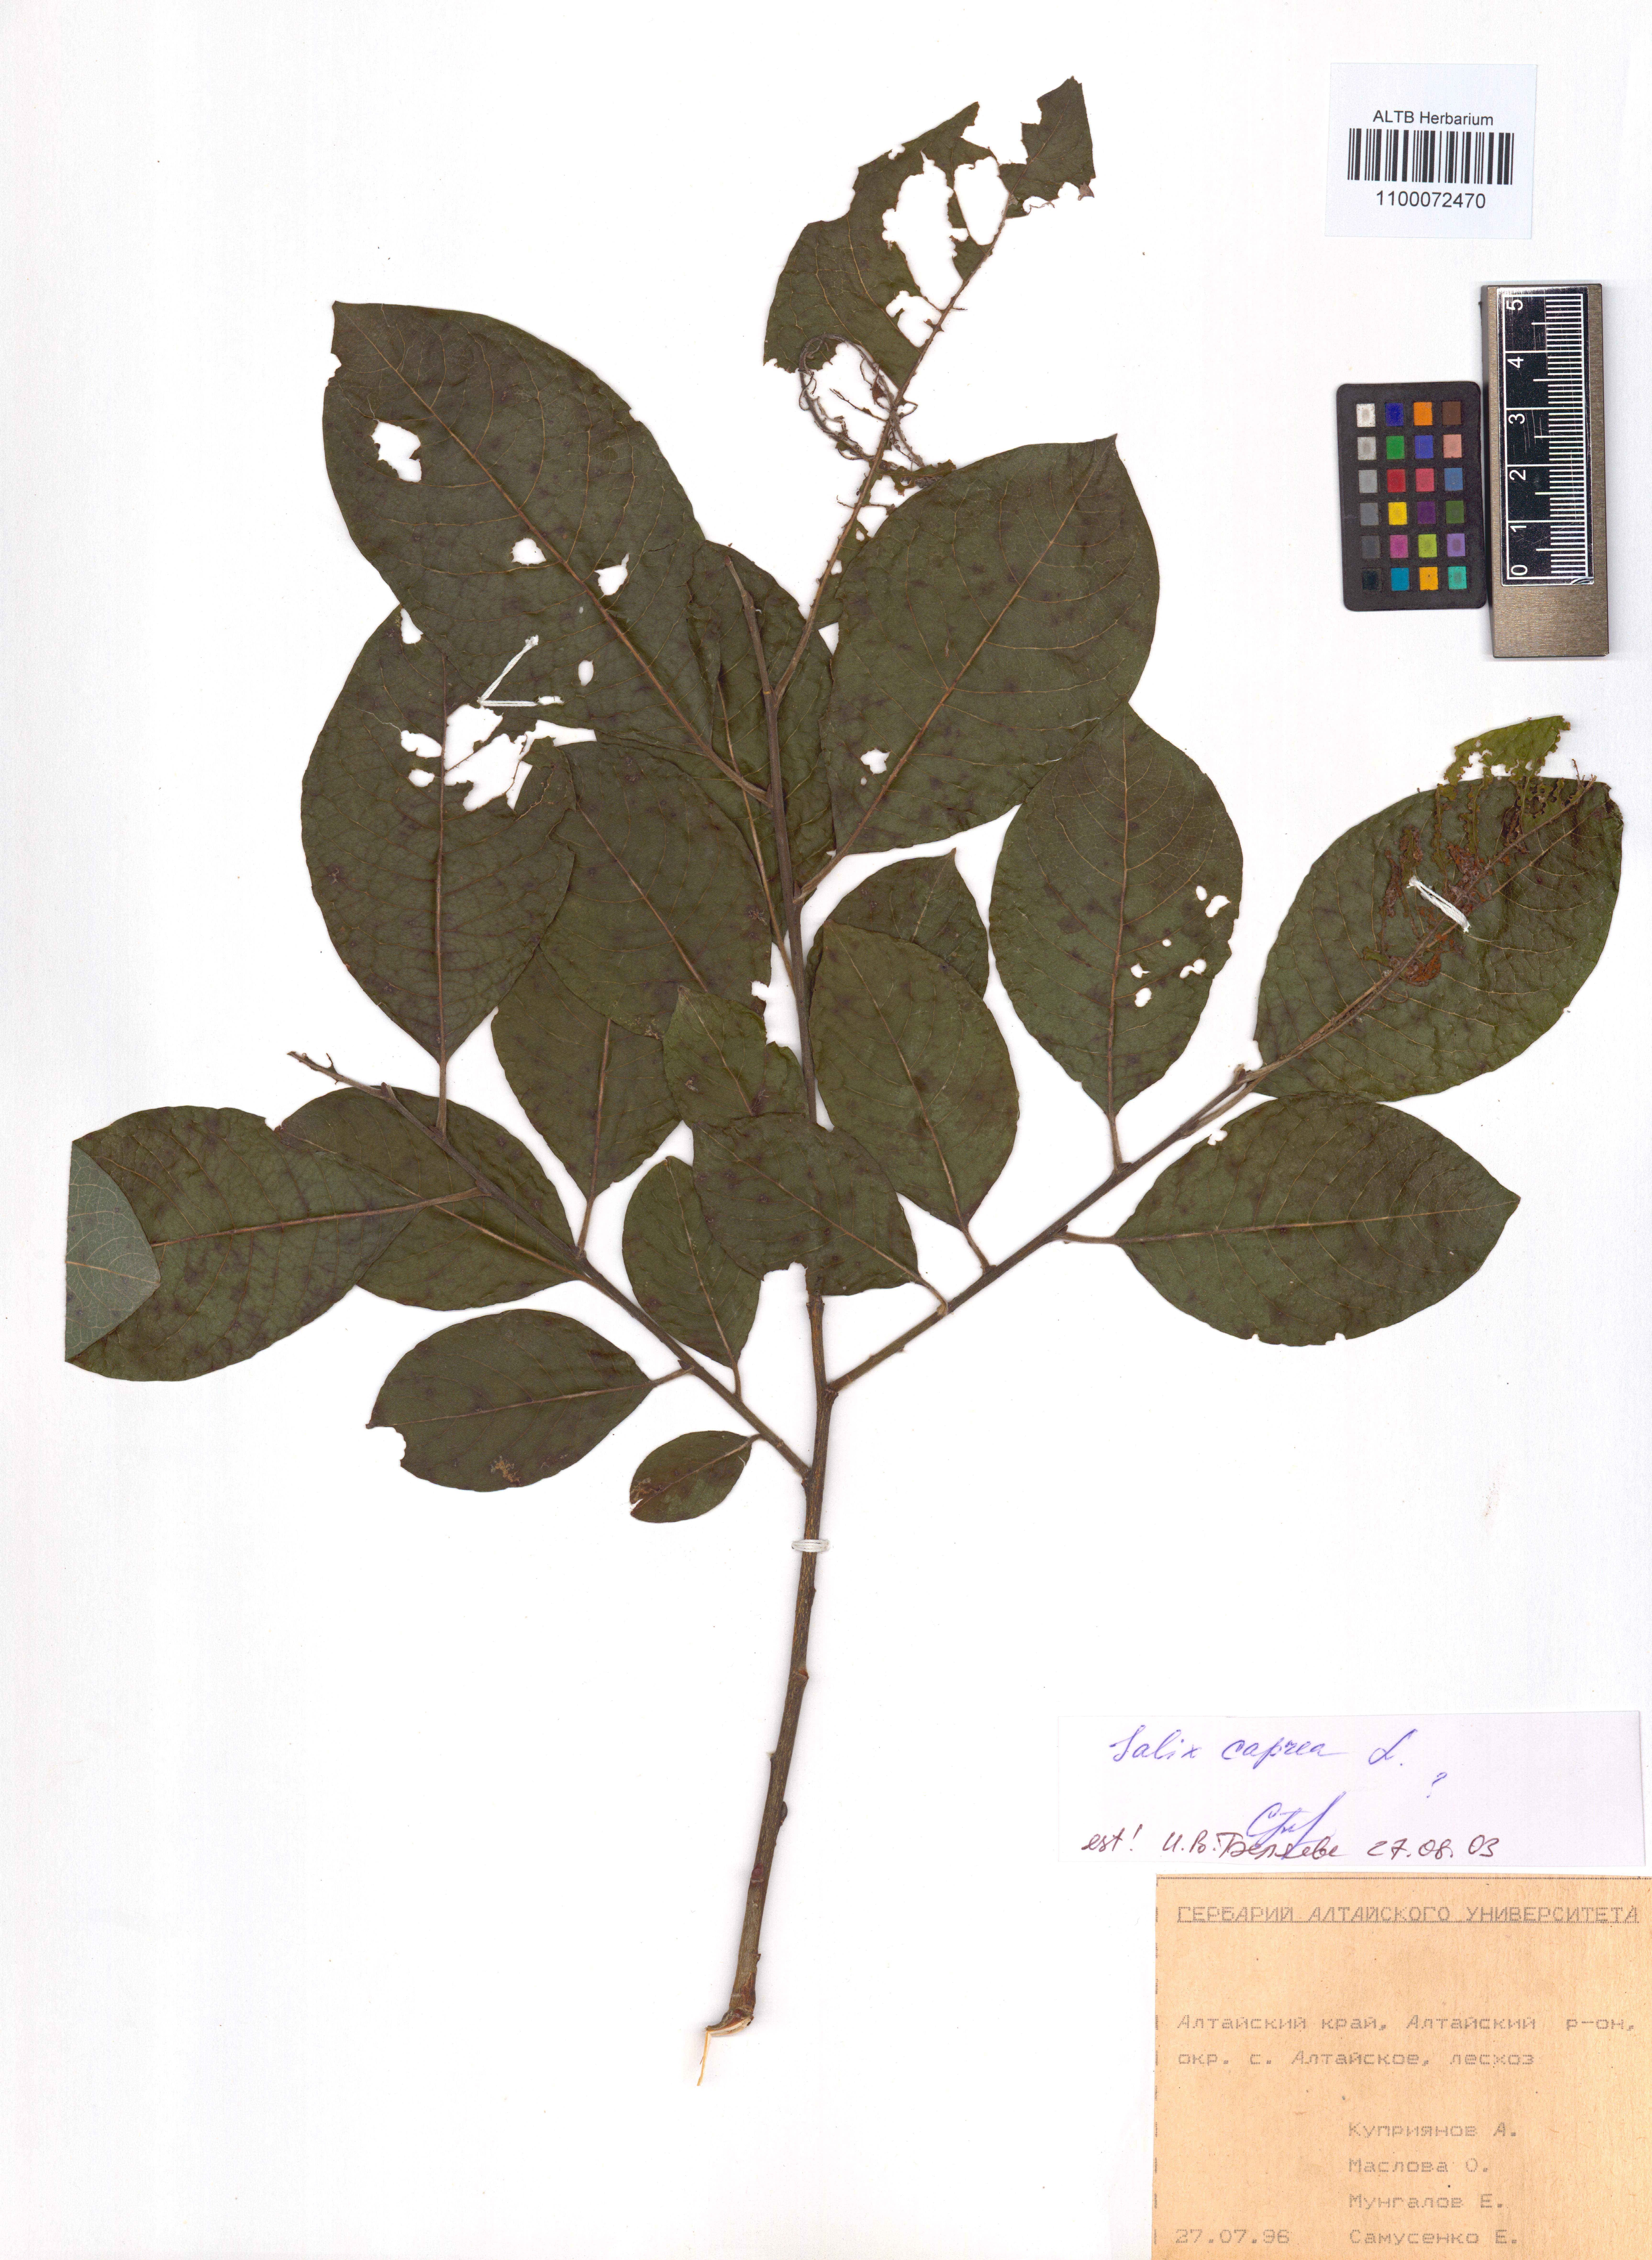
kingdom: Plantae
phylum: Tracheophyta
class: Magnoliopsida
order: Malpighiales
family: Salicaceae
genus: Salix
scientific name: Salix caprea
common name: Goat willow
